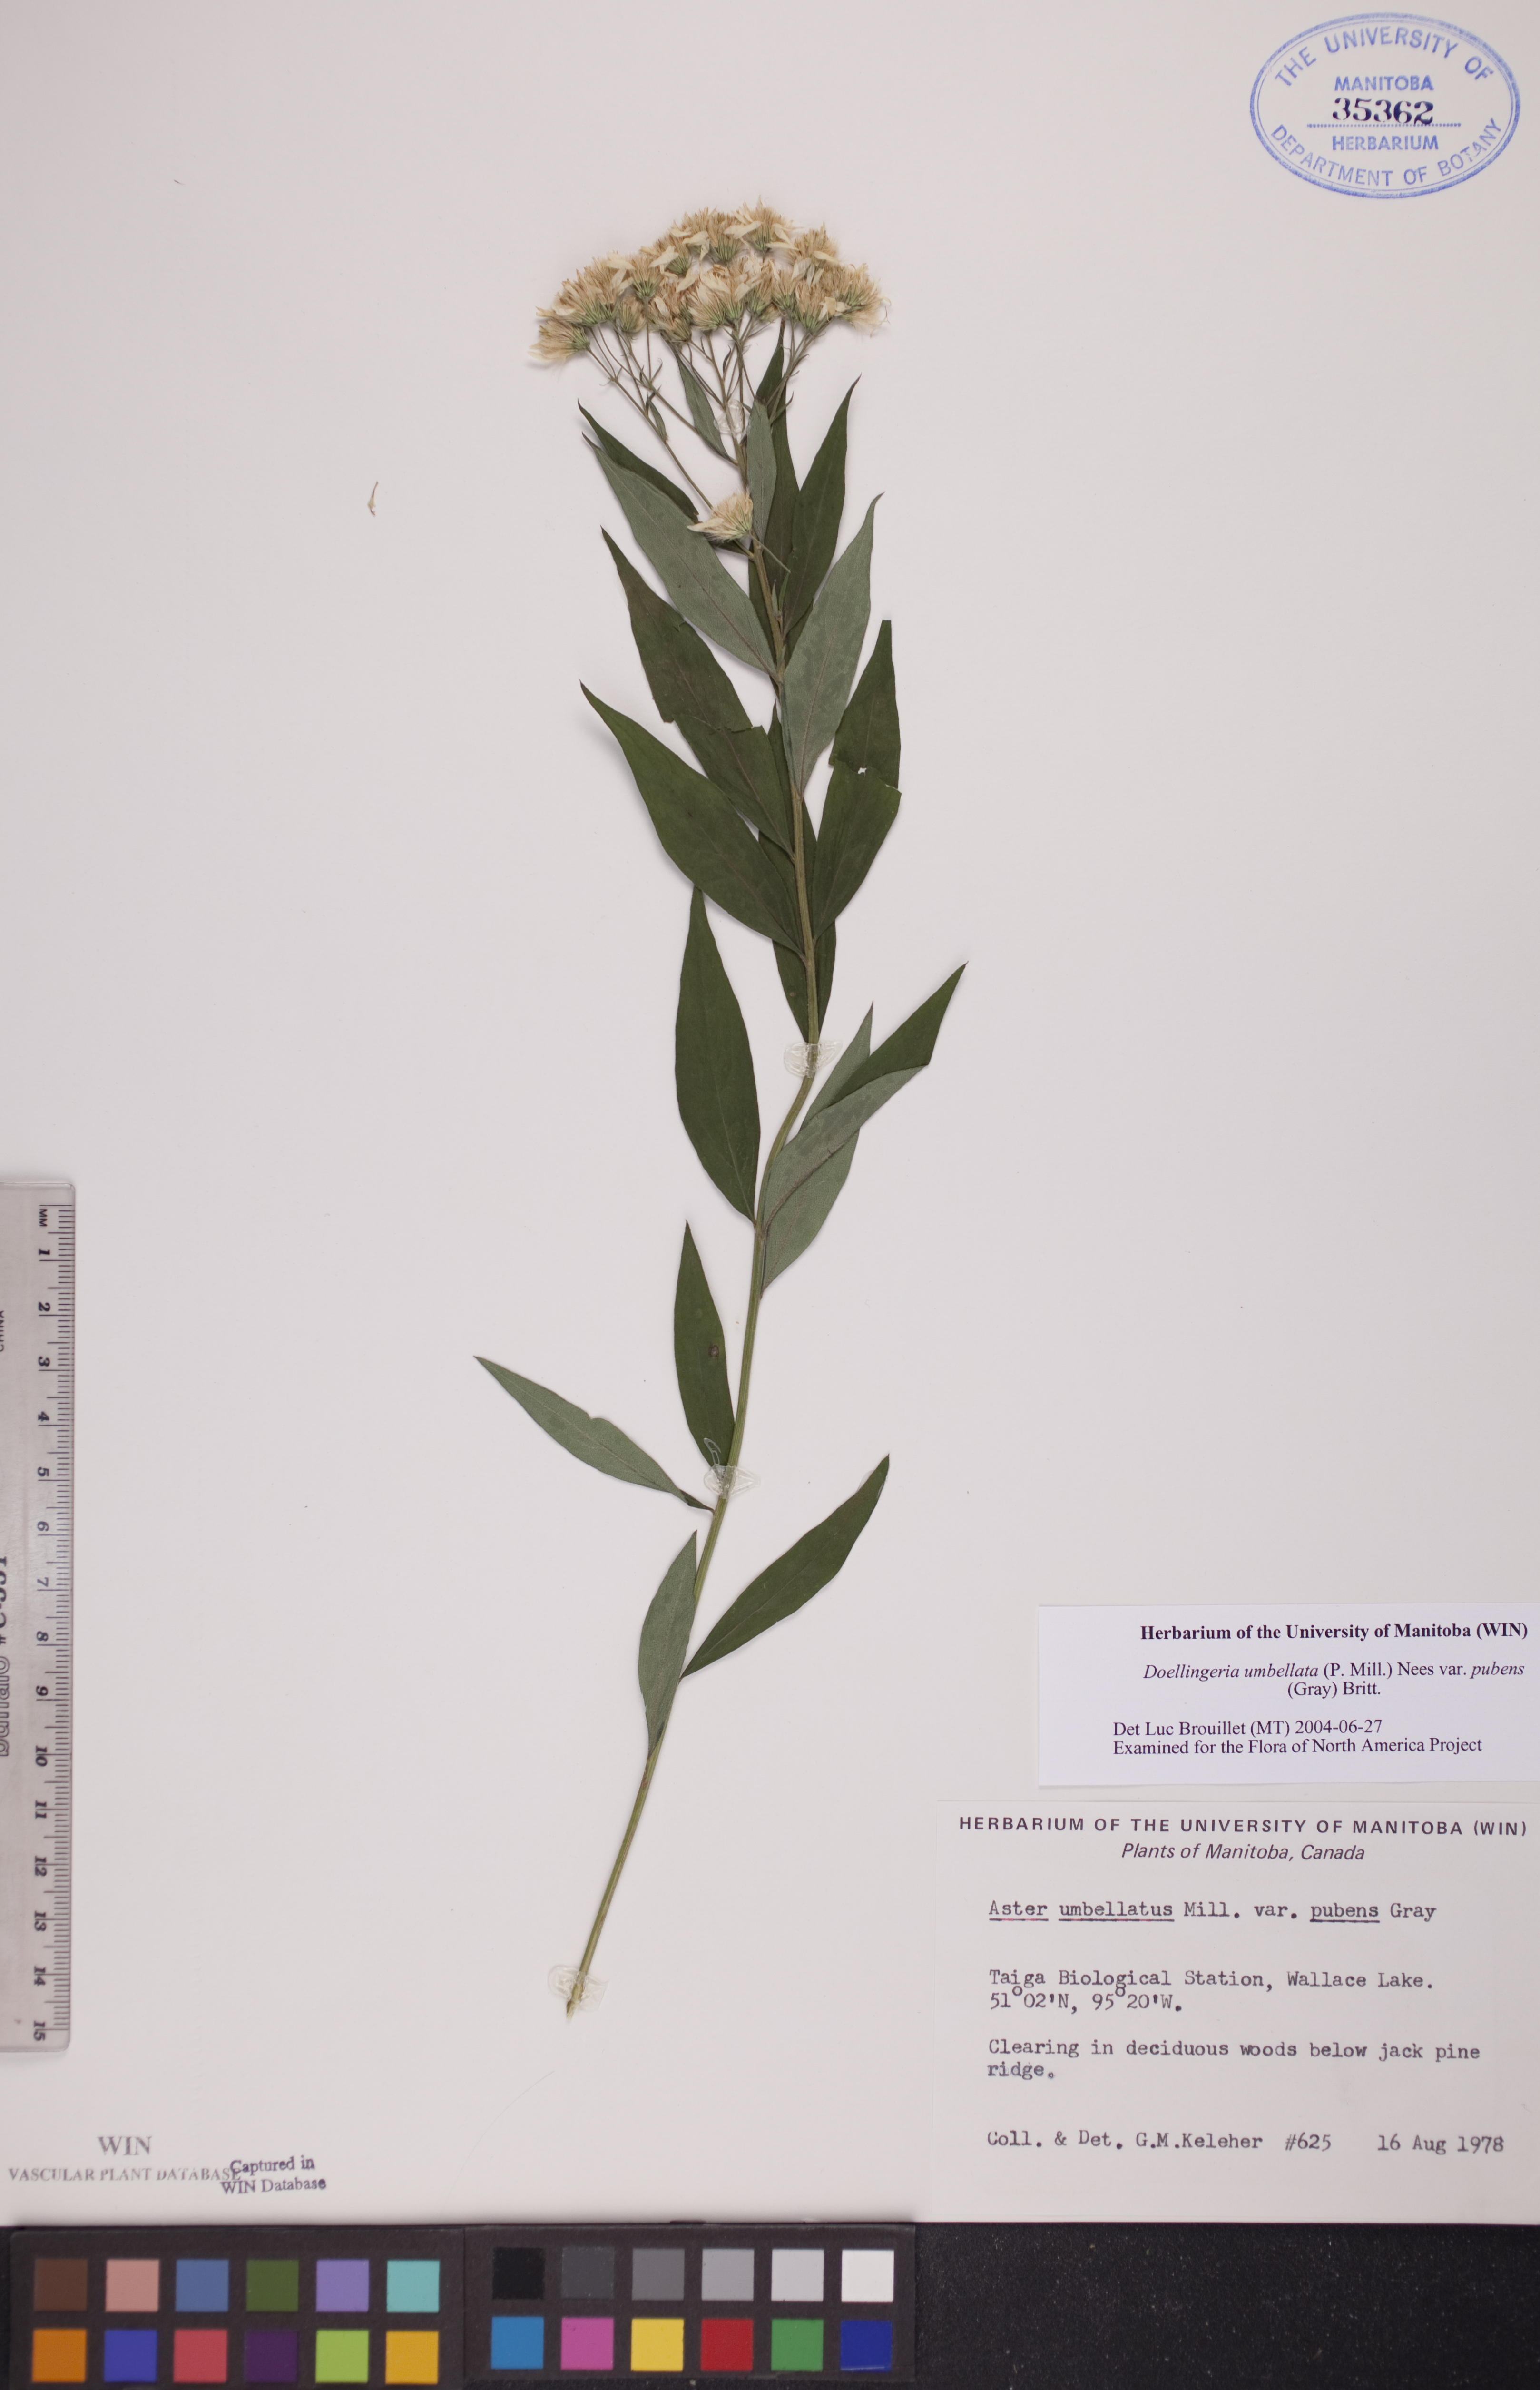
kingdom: Plantae
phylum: Tracheophyta
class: Magnoliopsida
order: Asterales
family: Asteraceae
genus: Doellingeria
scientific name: Doellingeria umbellata
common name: Flat-top white aster
